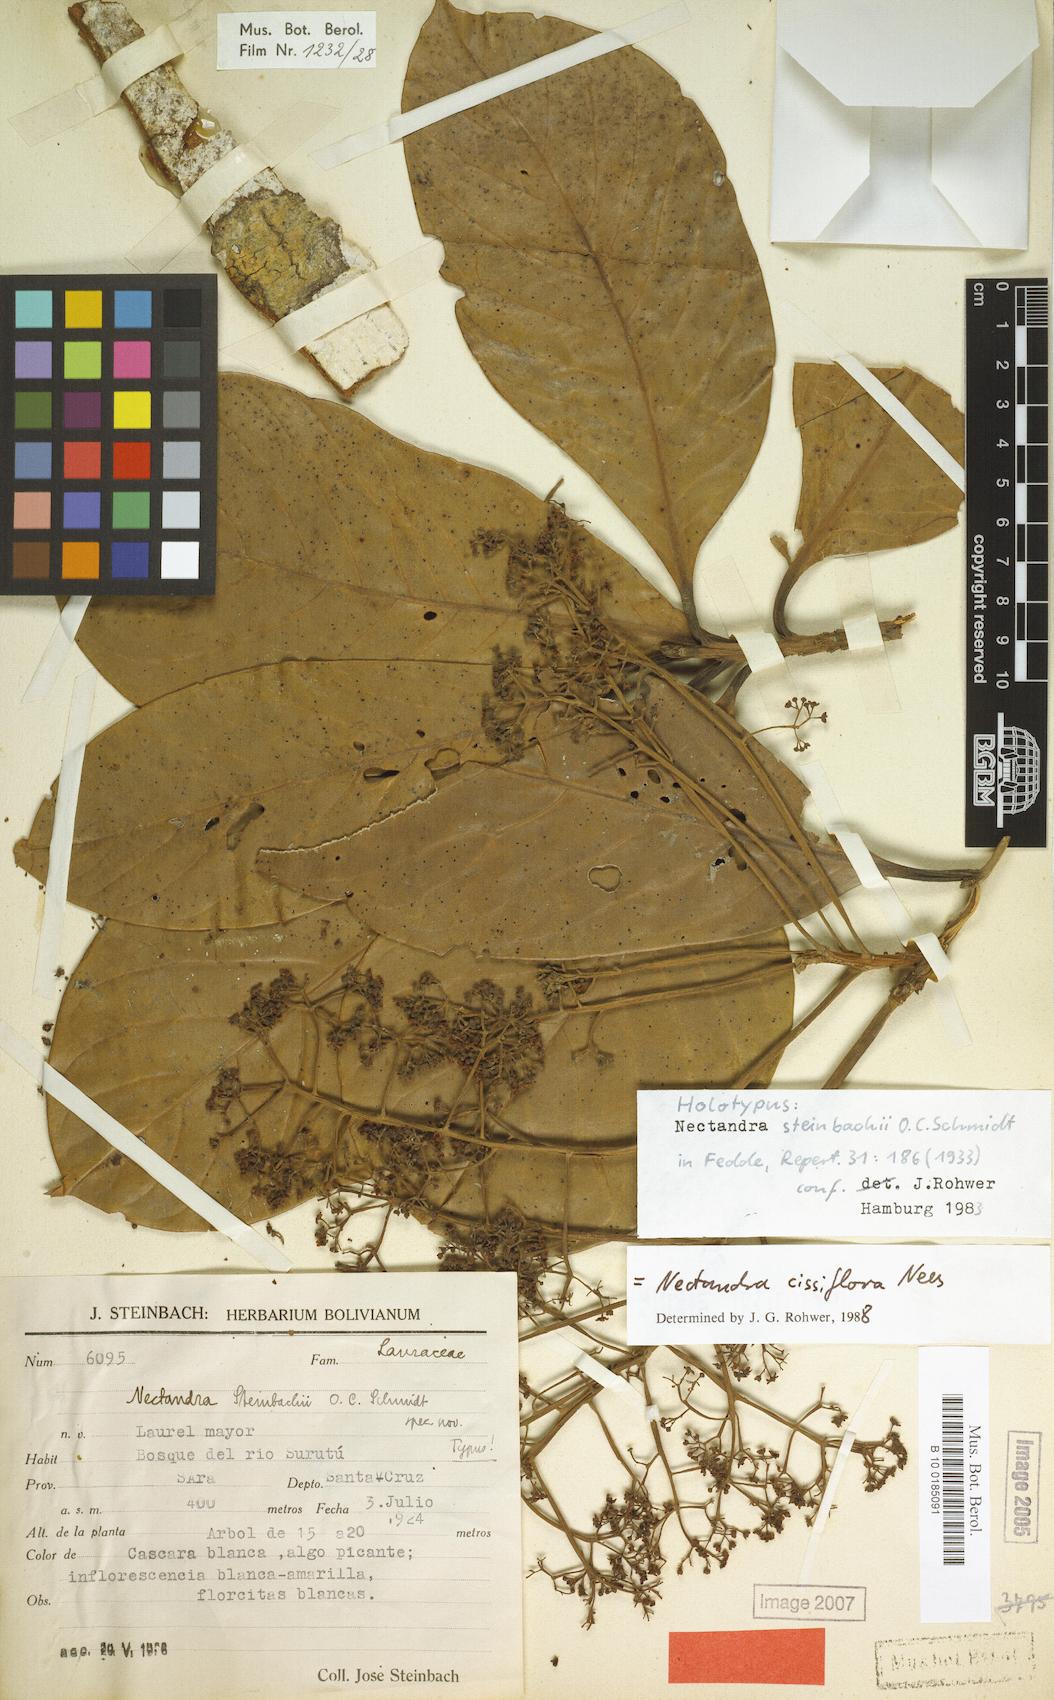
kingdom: Plantae
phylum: Tracheophyta
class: Magnoliopsida
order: Laurales
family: Lauraceae
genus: Nectandra
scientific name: Nectandra cissiflora
